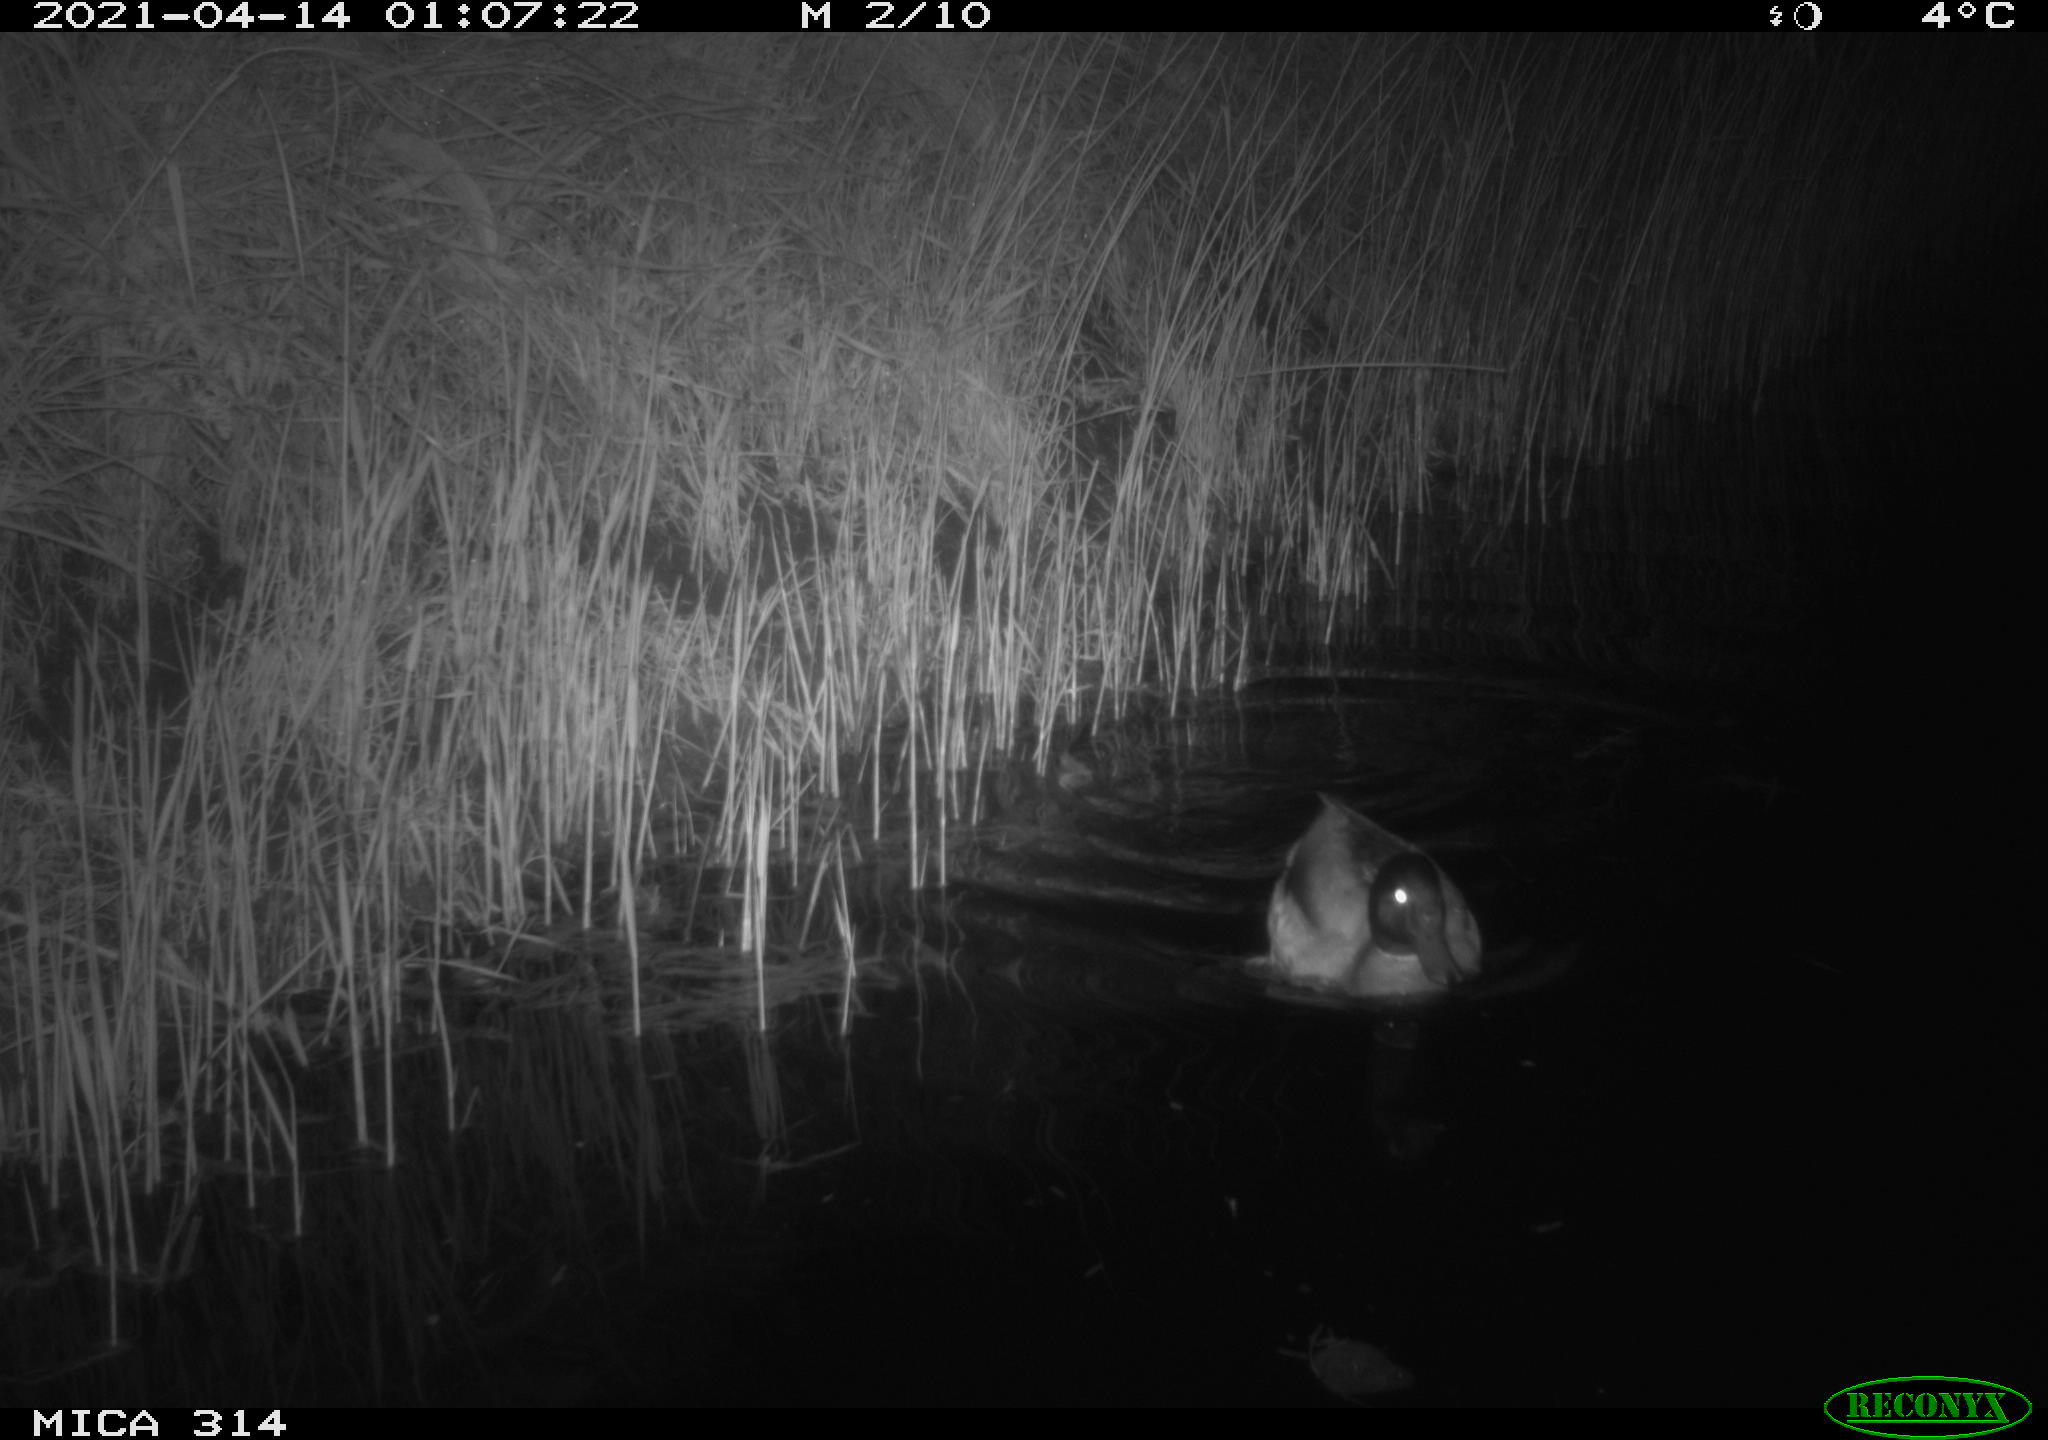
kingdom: Animalia
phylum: Chordata
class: Aves
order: Anseriformes
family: Anatidae
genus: Anas
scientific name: Anas platyrhynchos
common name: Mallard
